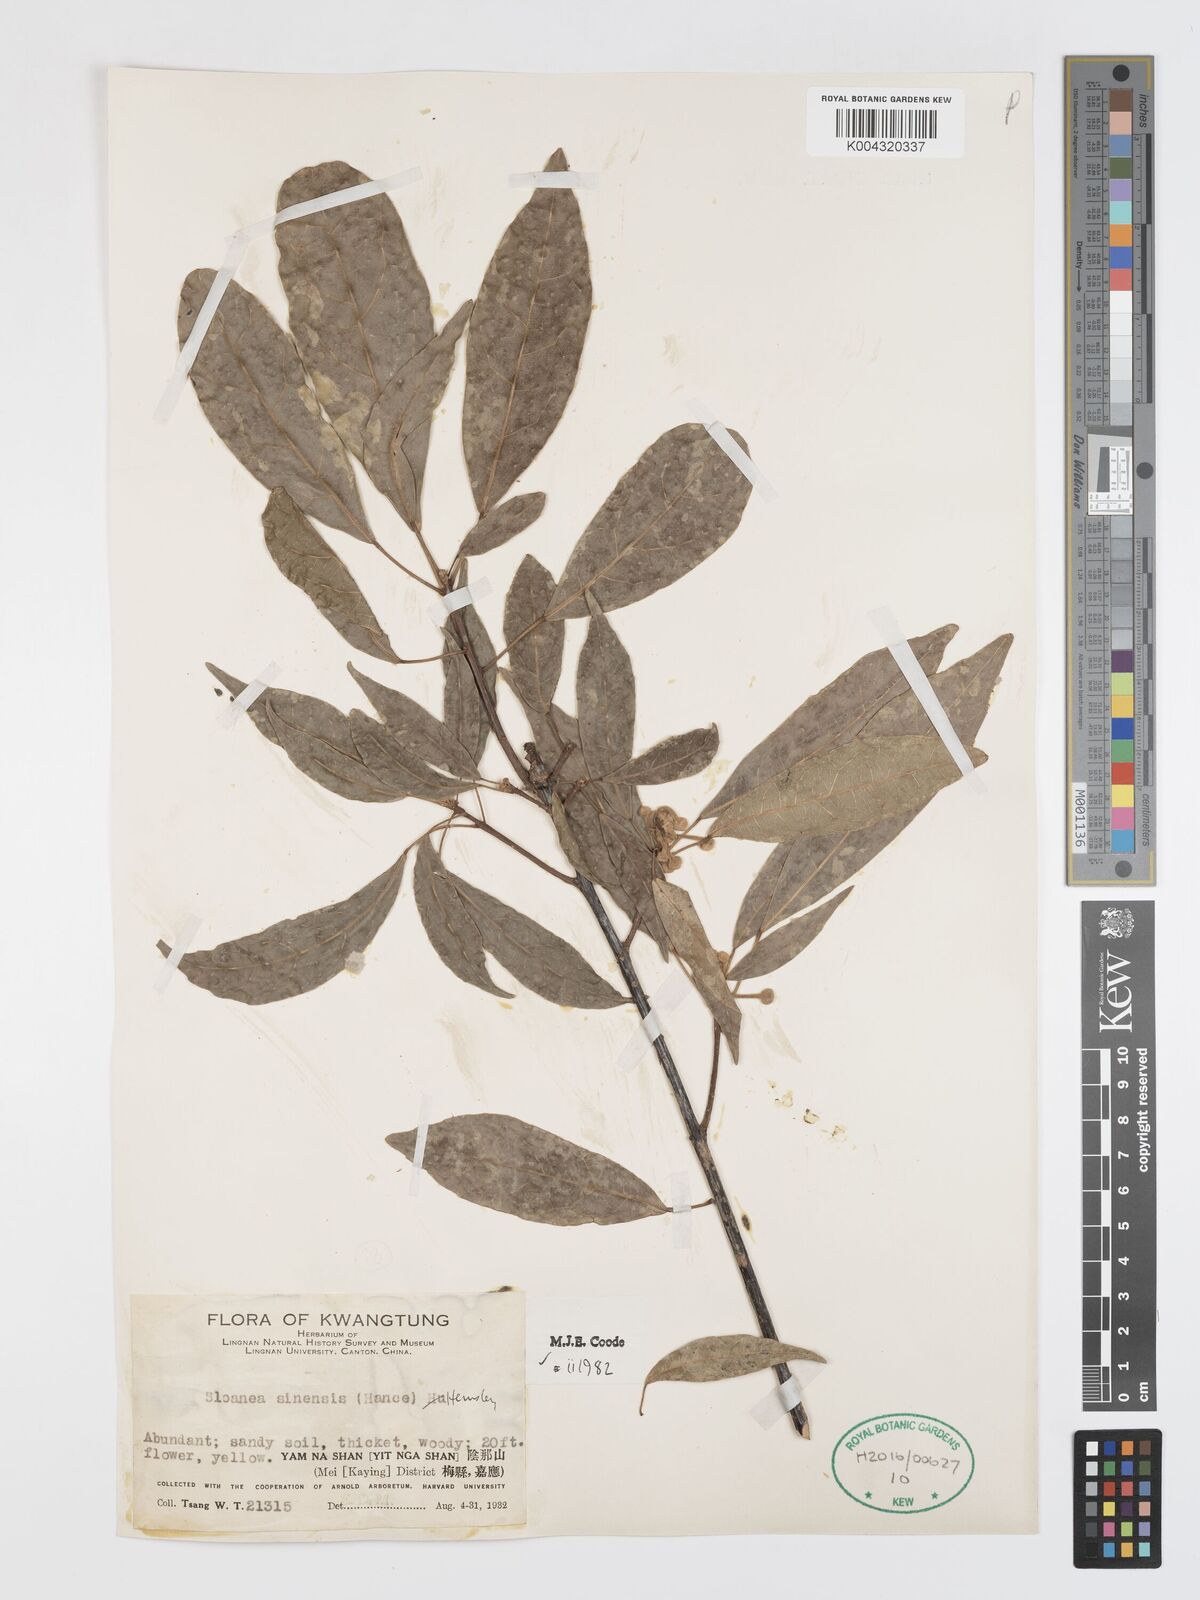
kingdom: Plantae
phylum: Tracheophyta
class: Magnoliopsida
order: Oxalidales
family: Elaeocarpaceae
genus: Sloanea
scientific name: Sloanea sinensis
